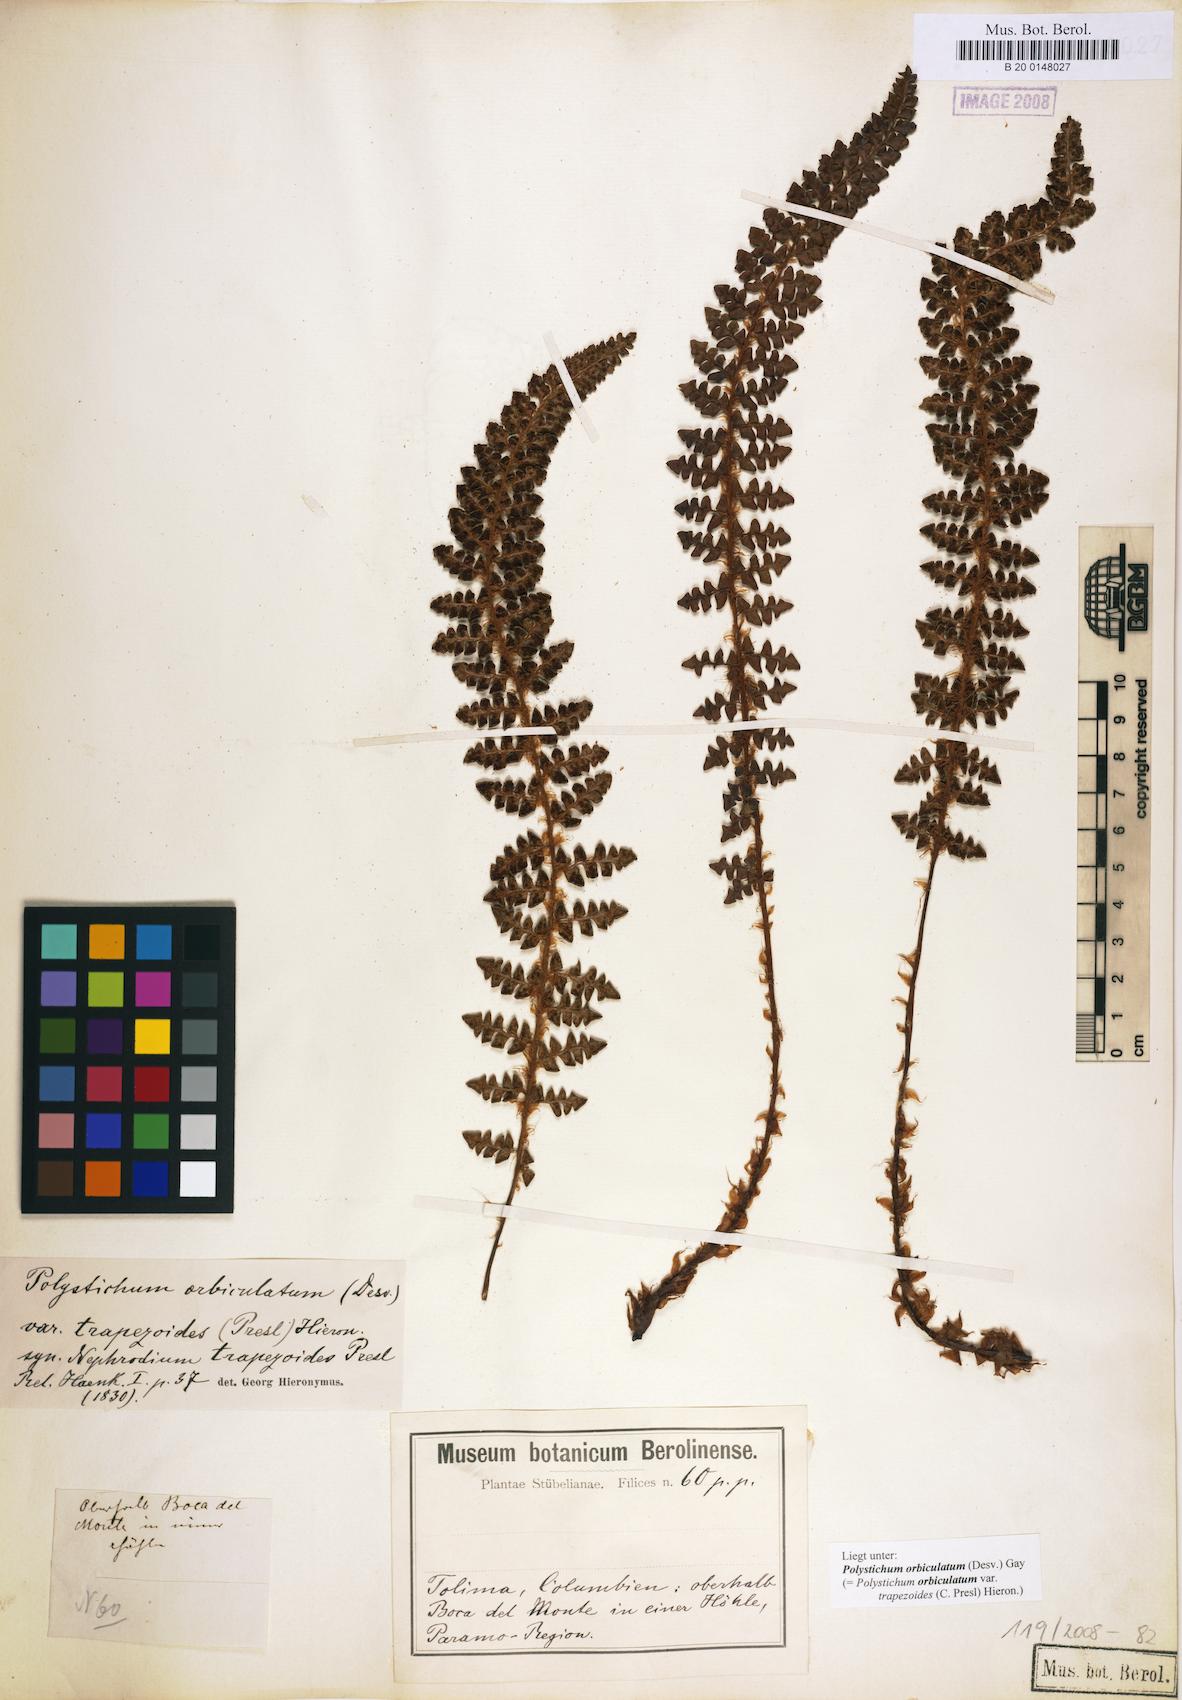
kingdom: Plantae
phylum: Tracheophyta
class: Polypodiopsida
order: Polypodiales
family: Dryopteridaceae
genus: Polystichum
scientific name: Polystichum orbiculatum
